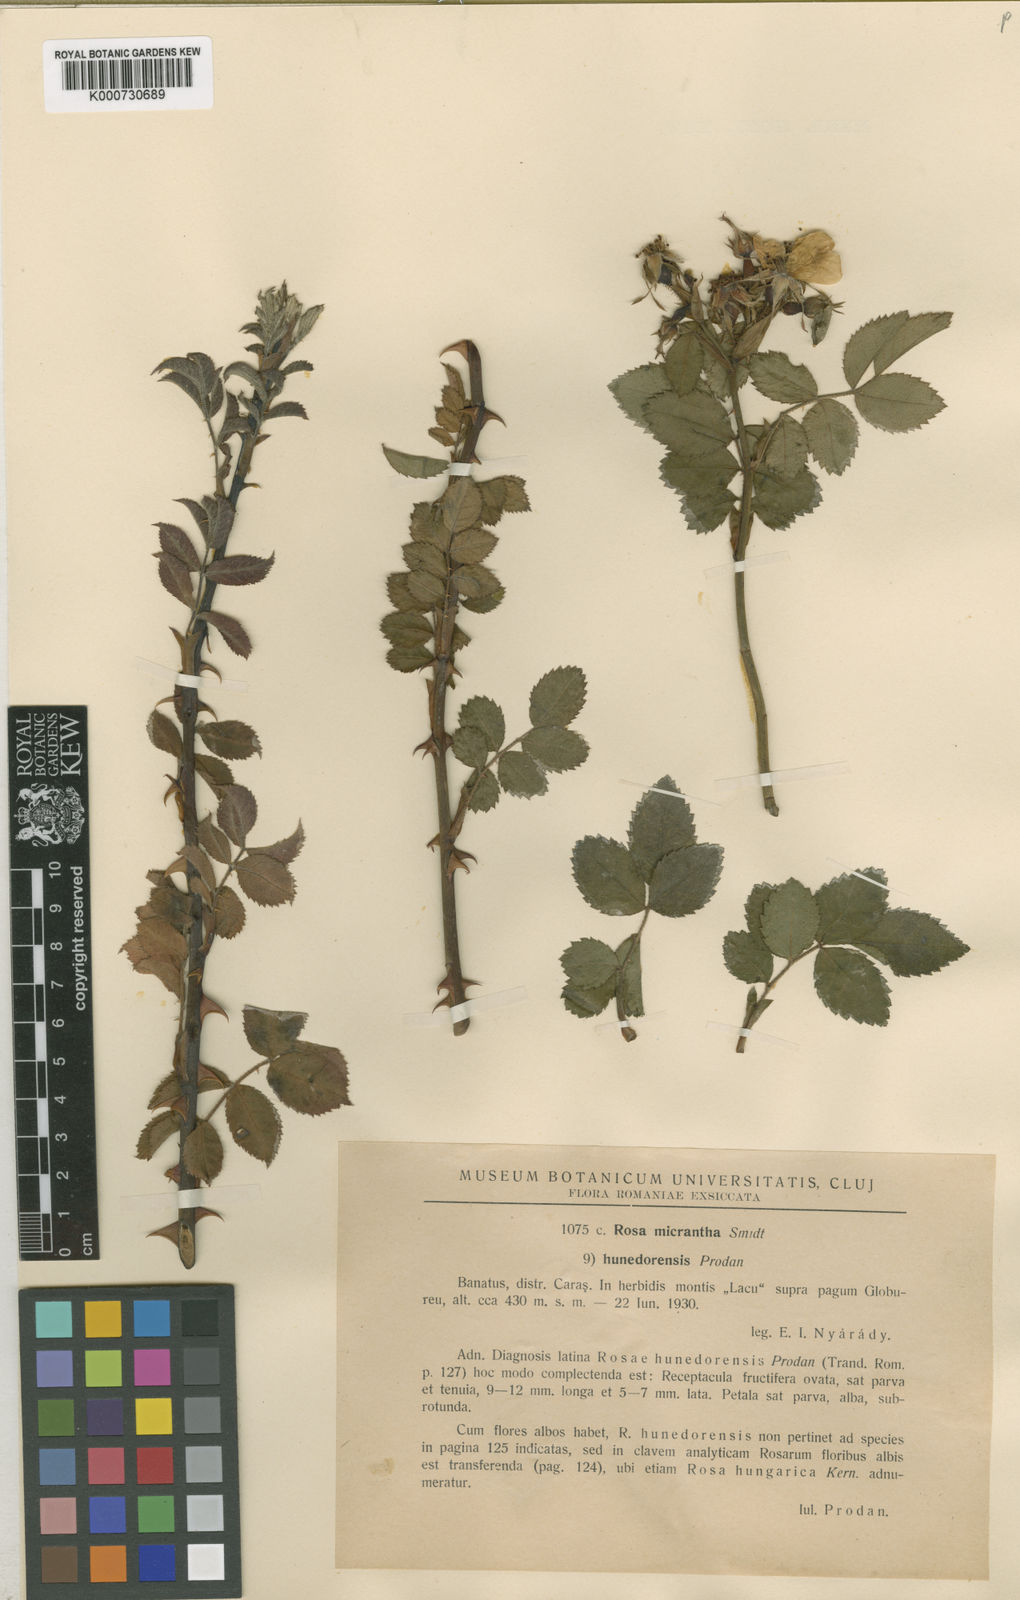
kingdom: Plantae
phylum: Tracheophyta
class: Magnoliopsida
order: Rosales
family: Rosaceae
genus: Rosa
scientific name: Rosa
